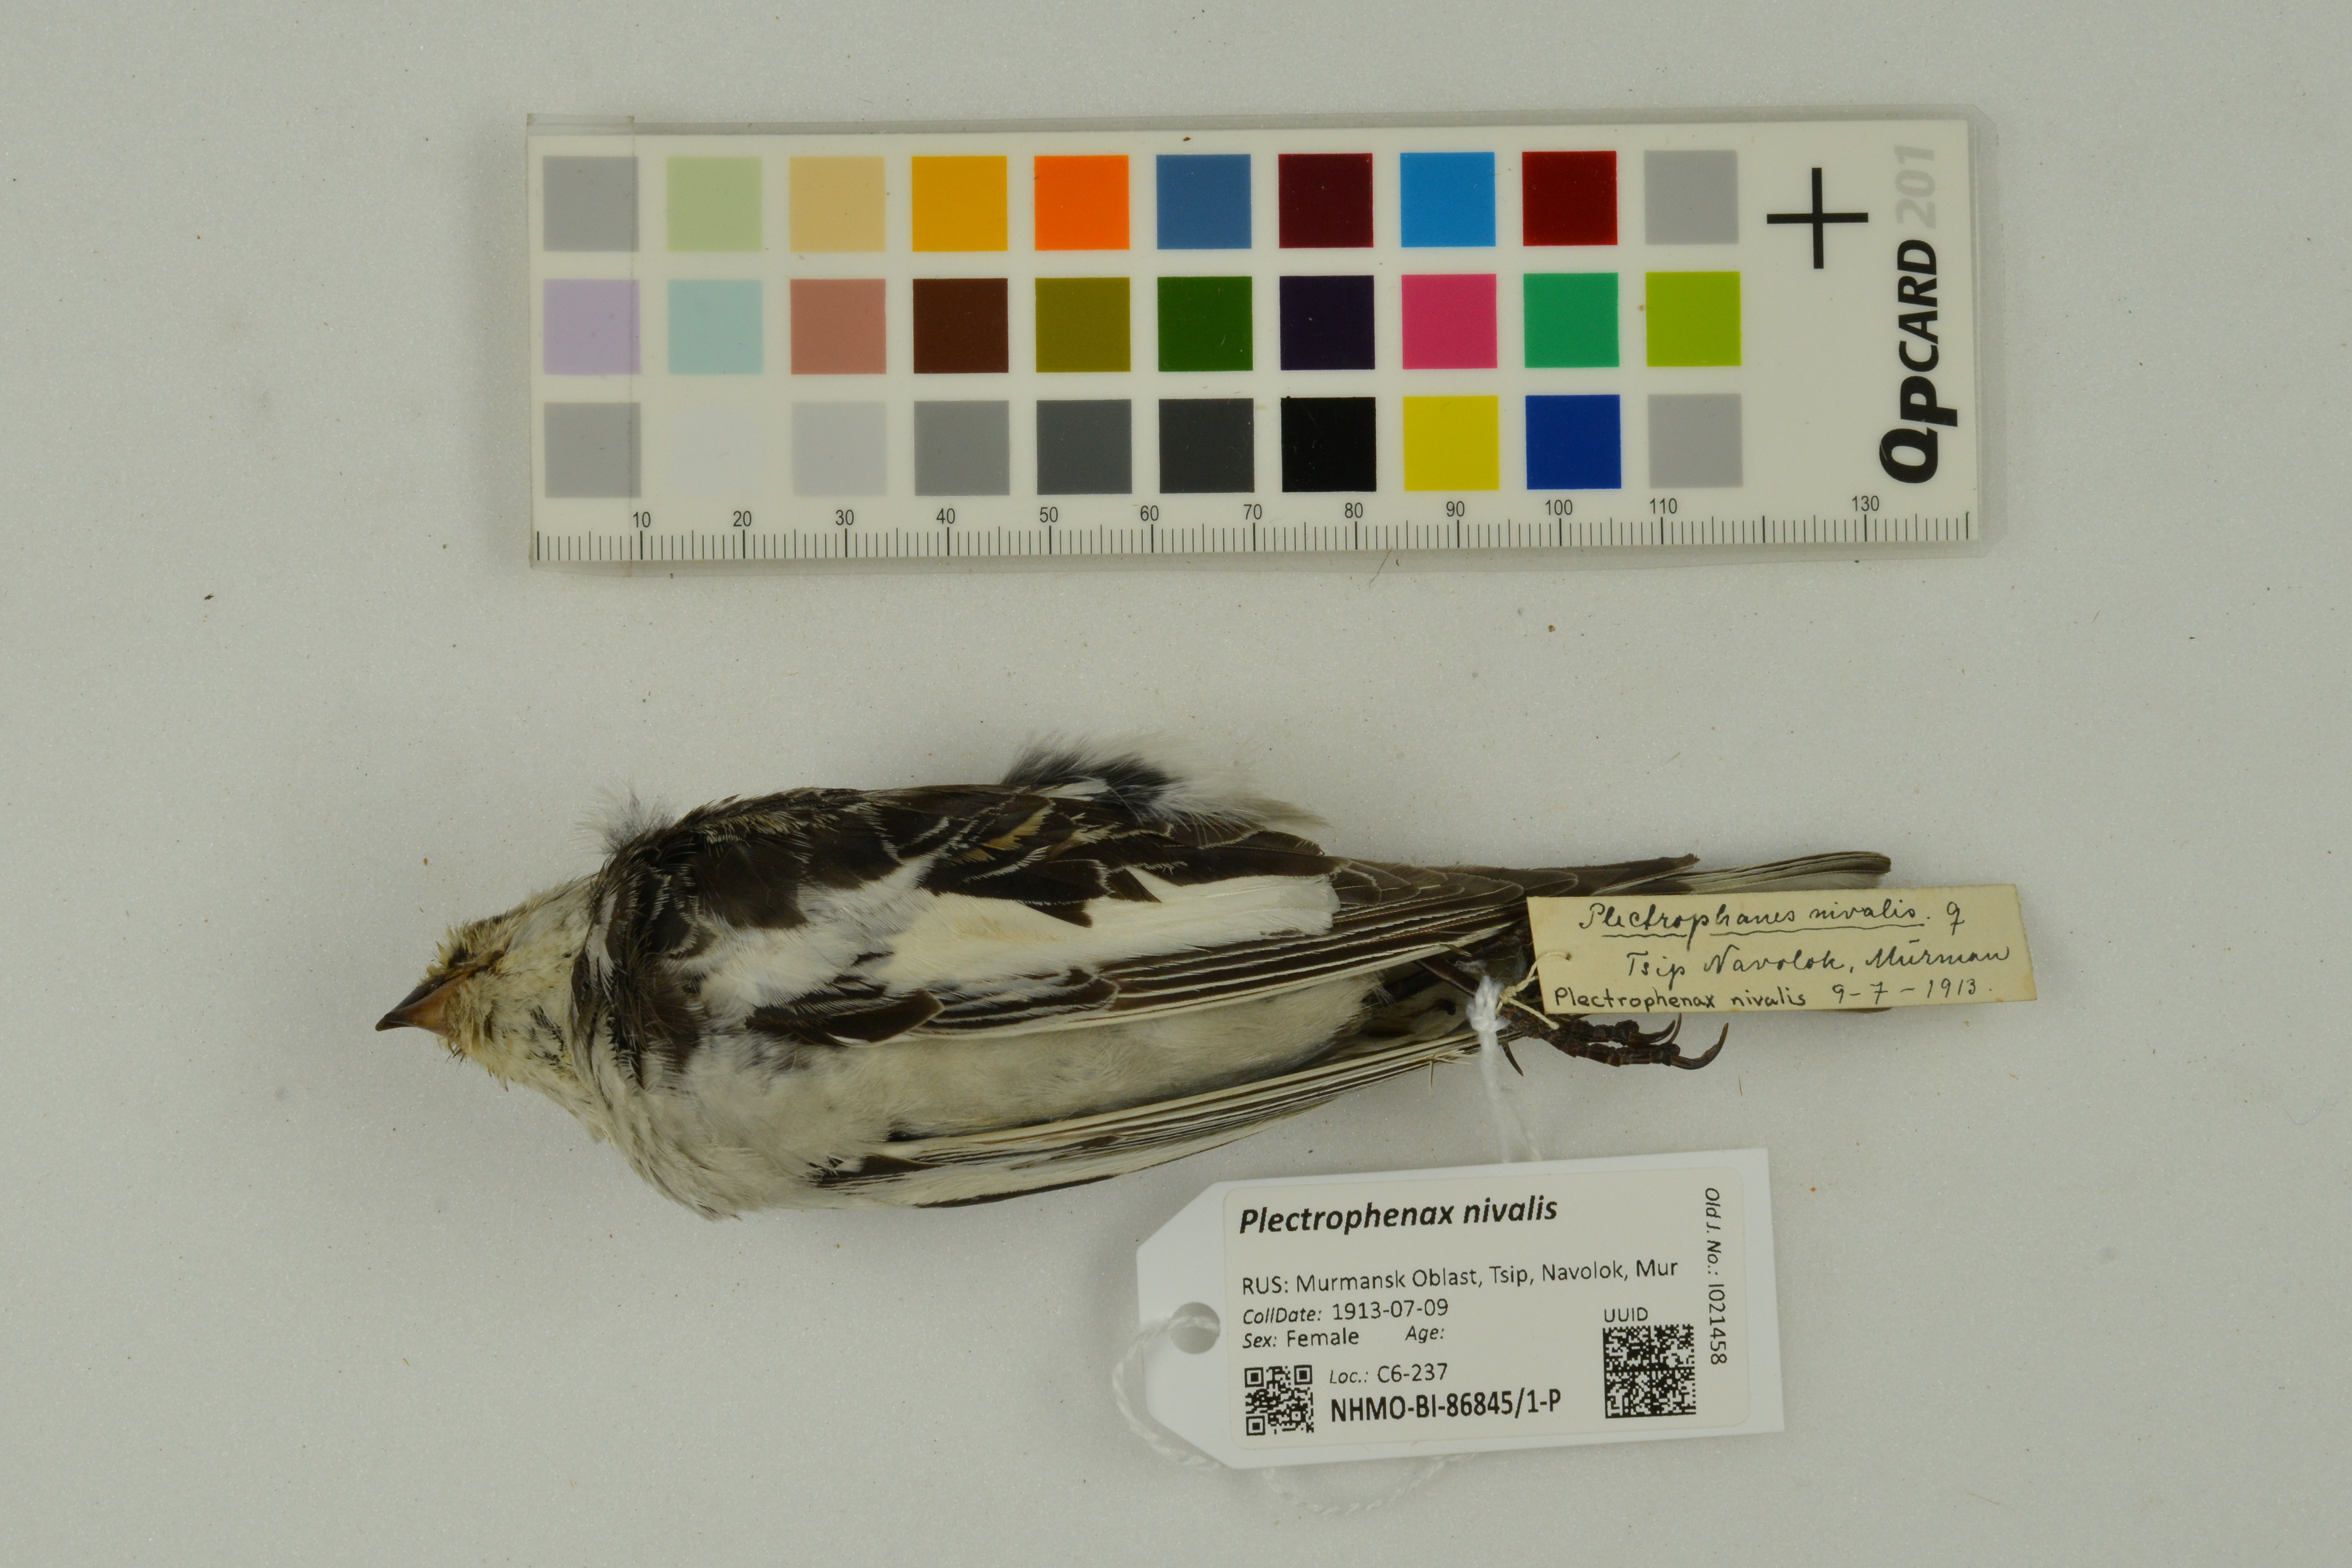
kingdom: Animalia
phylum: Chordata
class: Aves
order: Passeriformes
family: Calcariidae
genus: Plectrophenax
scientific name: Plectrophenax nivalis
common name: Snow bunting
